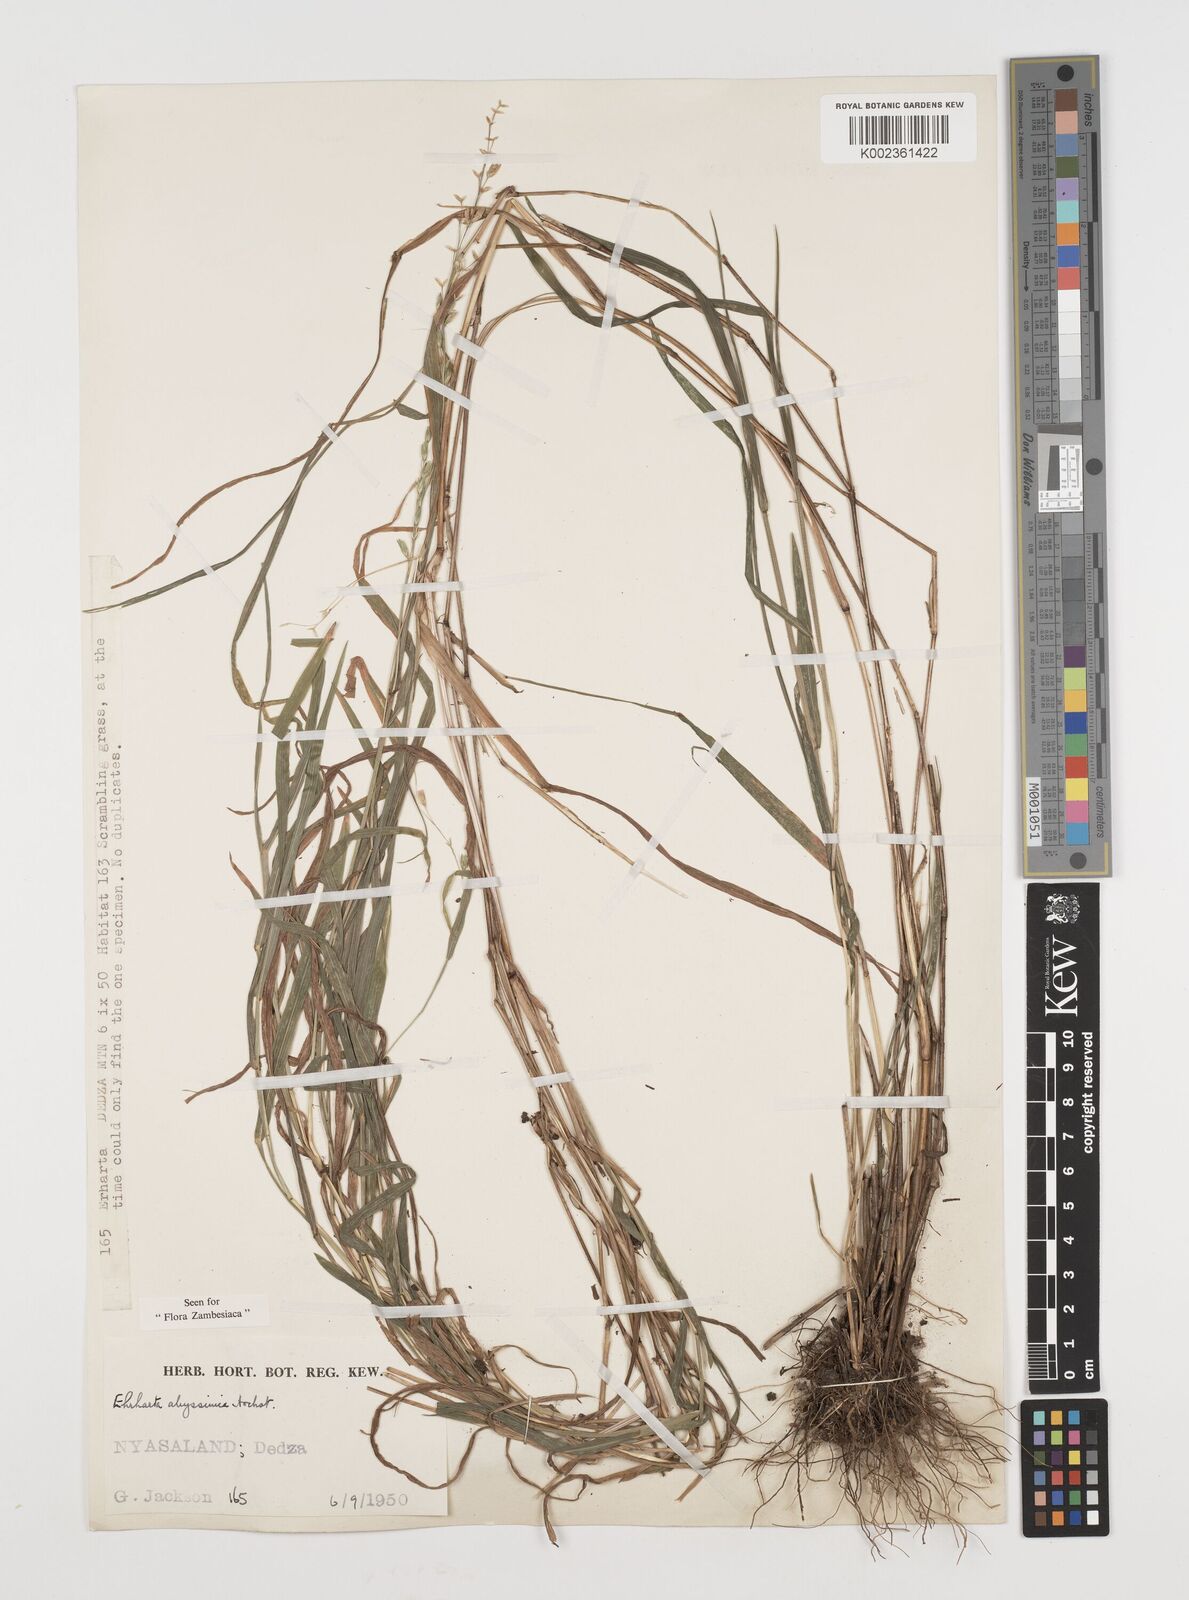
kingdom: Plantae
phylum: Tracheophyta
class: Liliopsida
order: Poales
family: Poaceae
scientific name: Poaceae
